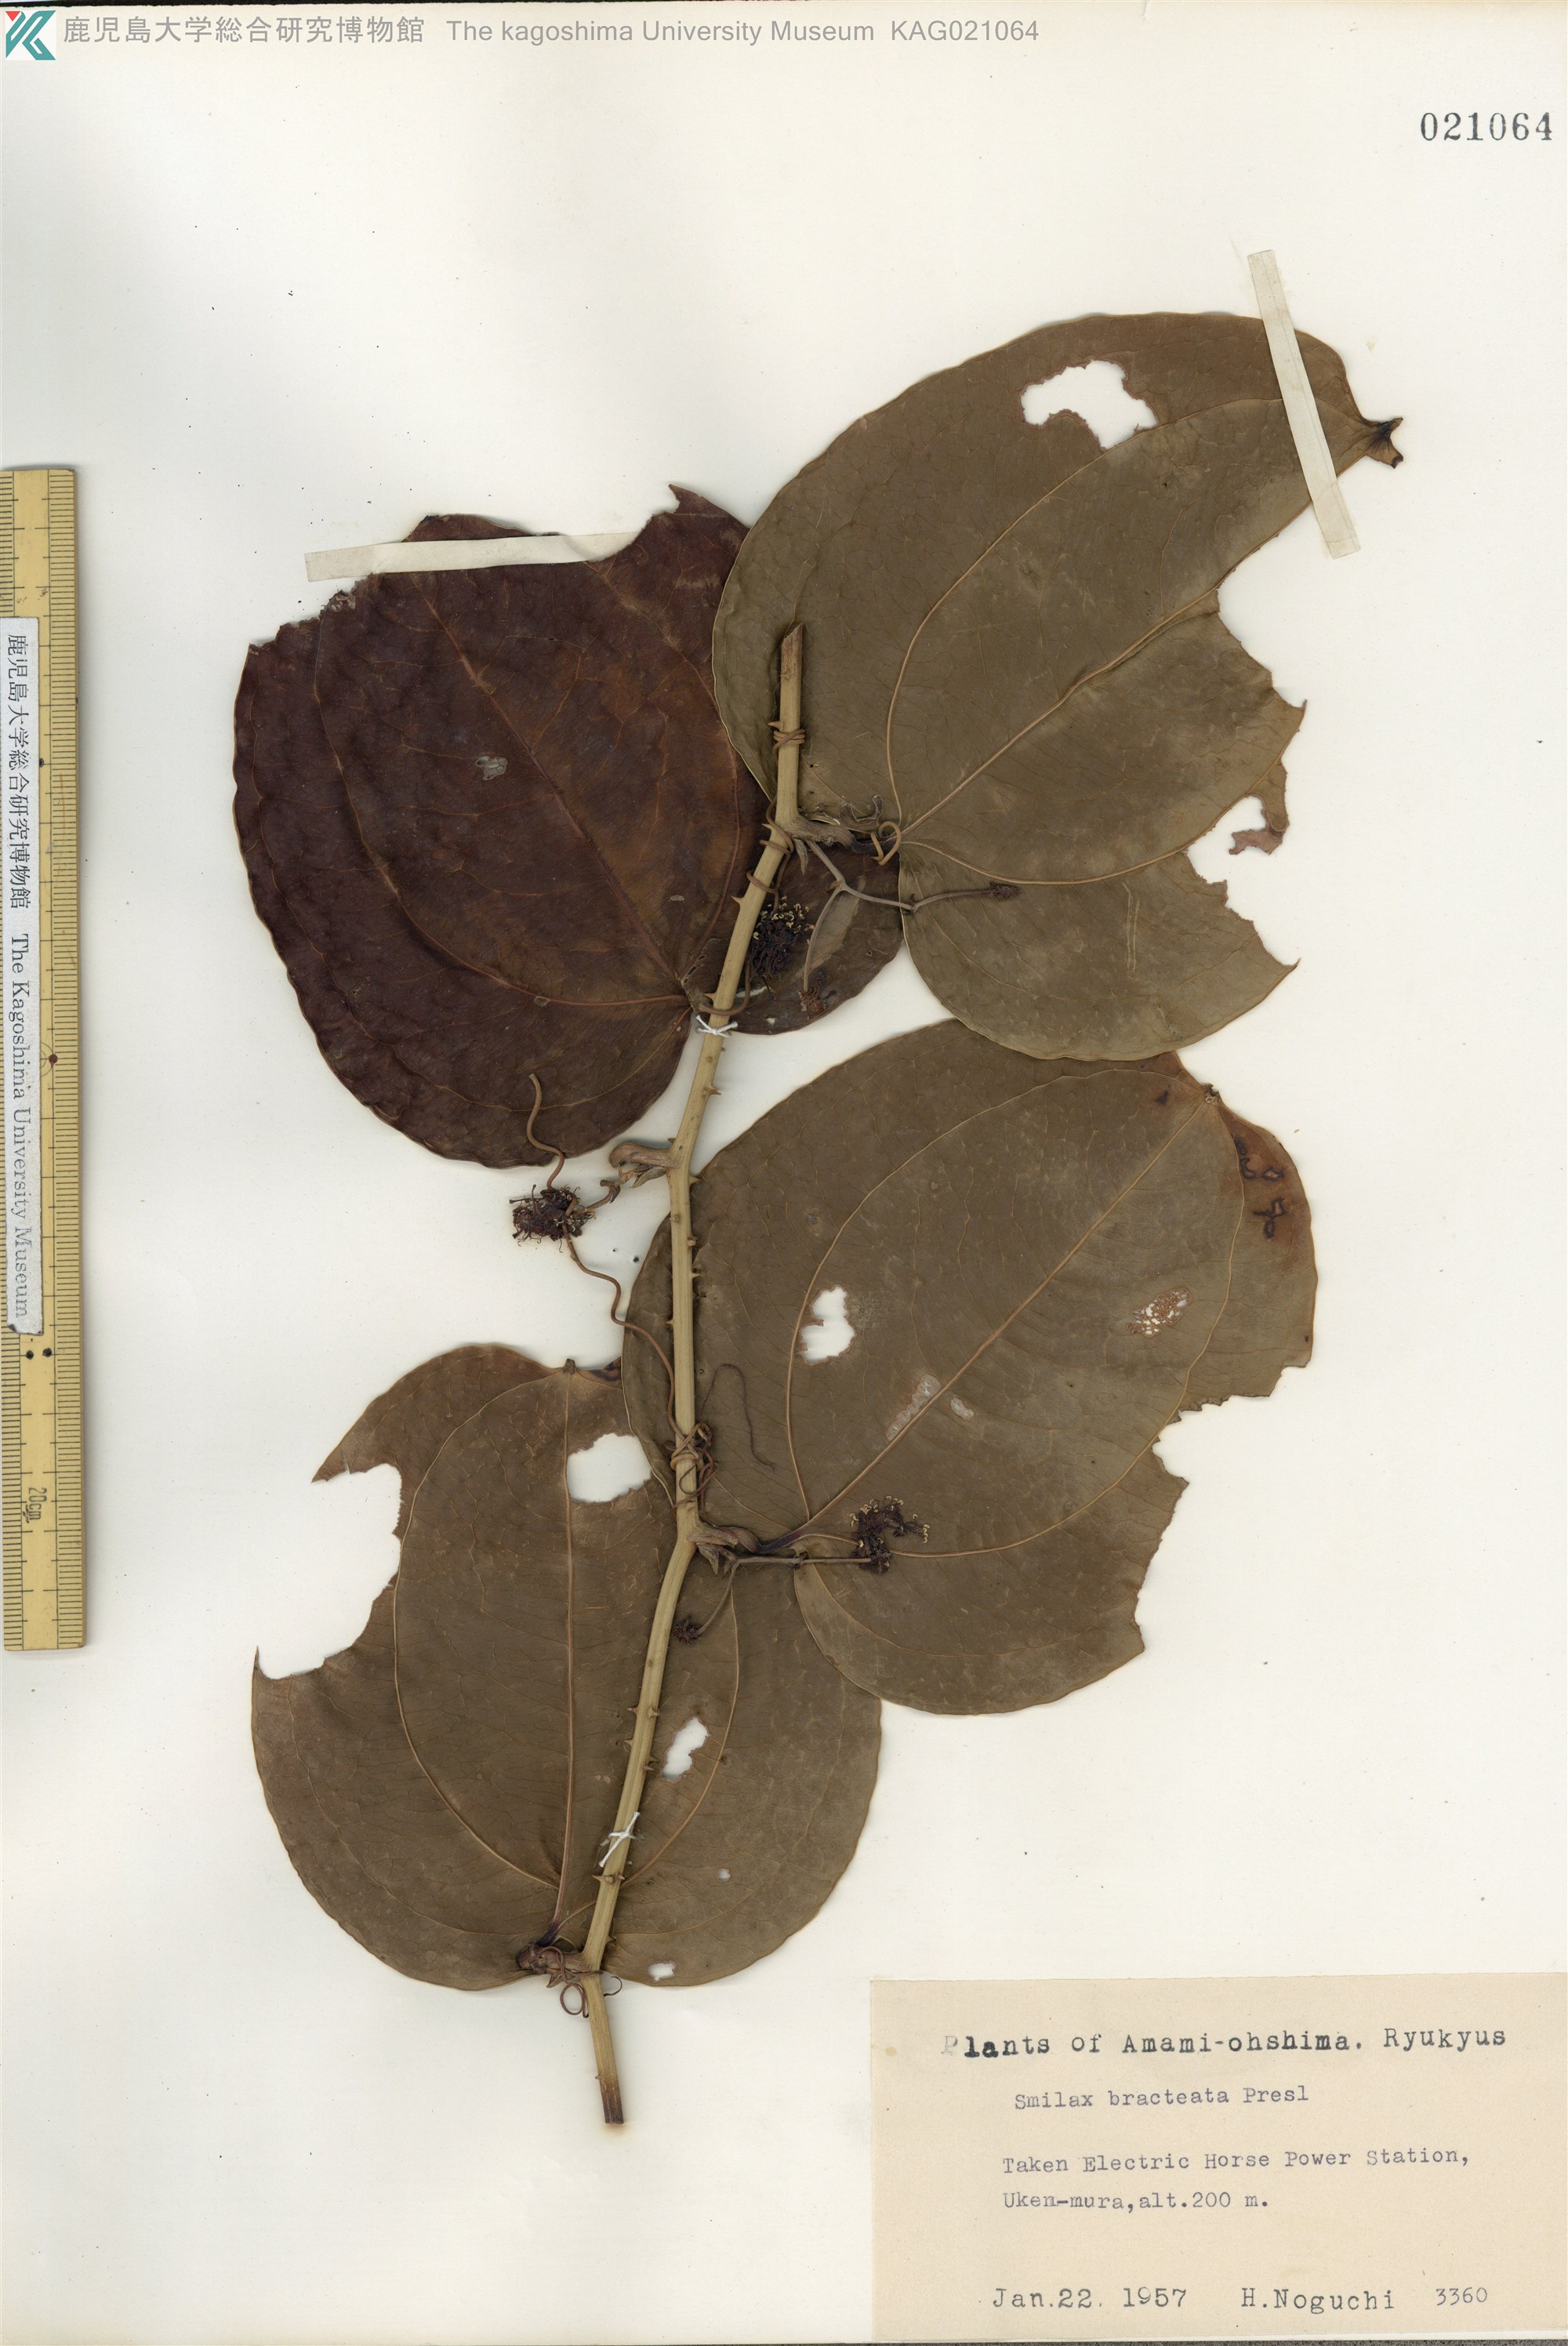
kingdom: Plantae
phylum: Tracheophyta
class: Liliopsida
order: Liliales
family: Smilacaceae
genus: Smilax
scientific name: Smilax bracteata
